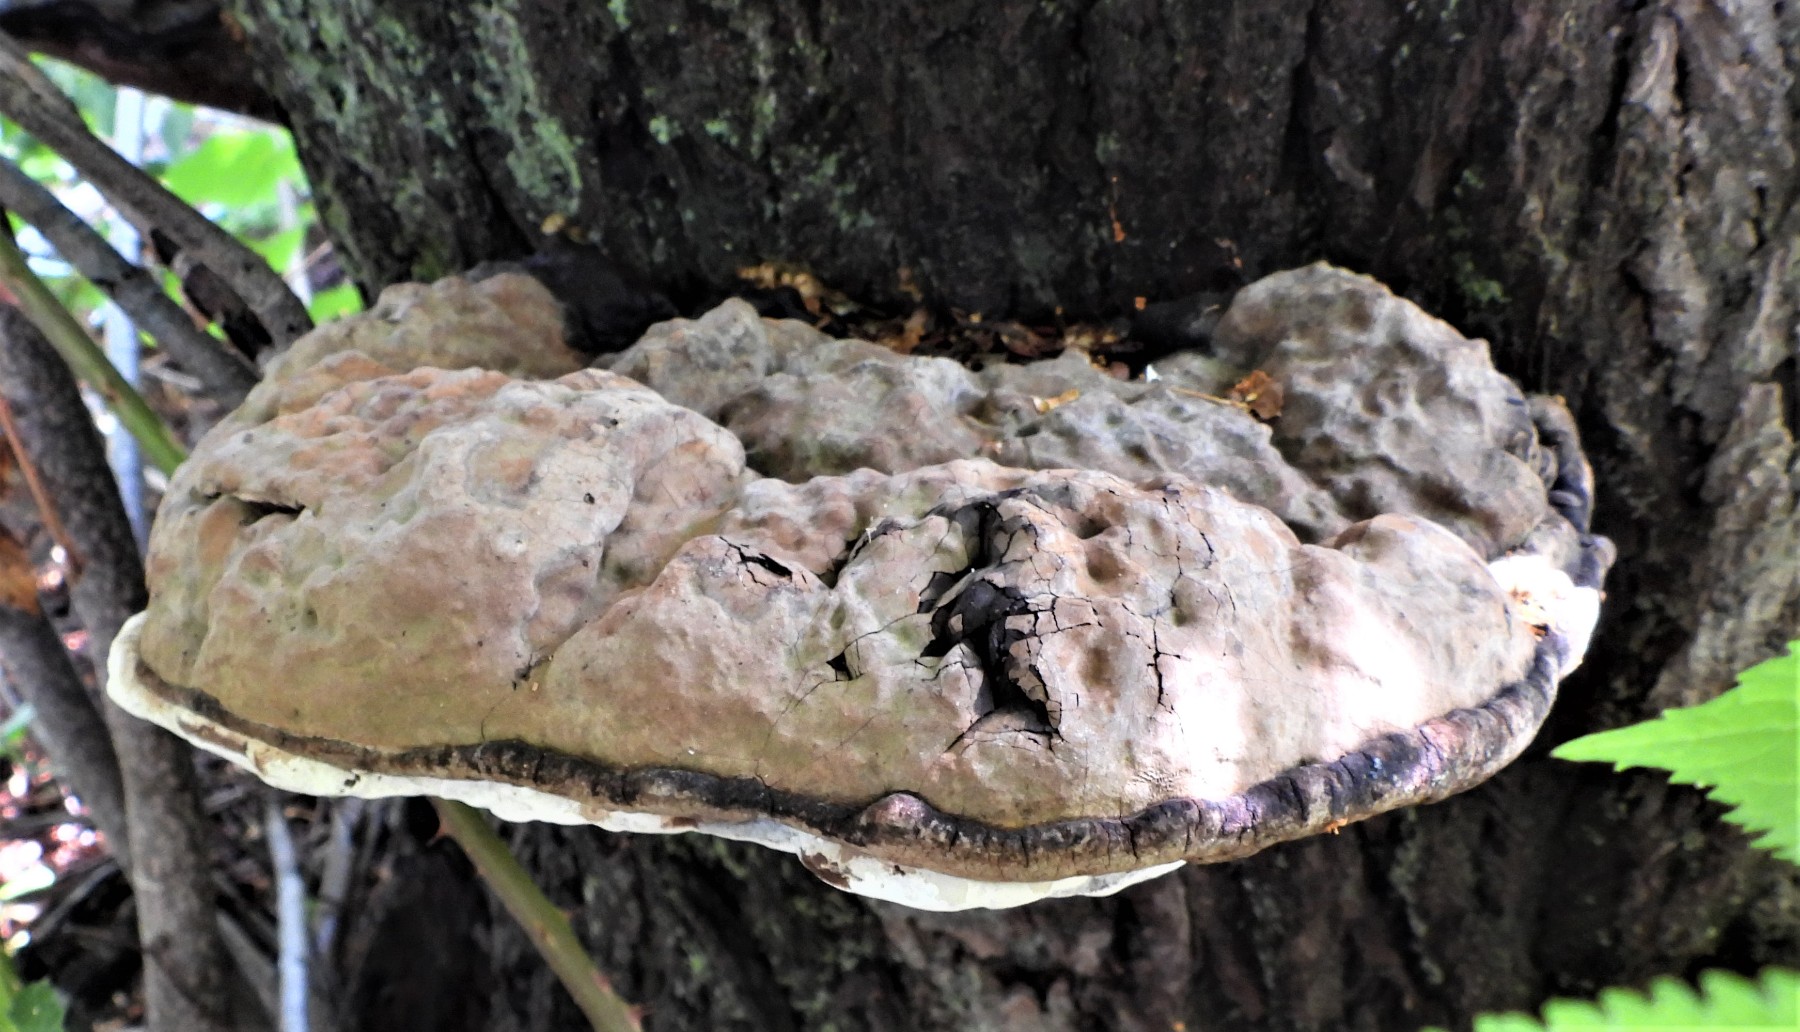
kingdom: Fungi
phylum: Basidiomycota
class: Agaricomycetes
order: Polyporales
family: Polyporaceae
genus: Ganoderma
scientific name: Ganoderma adspersum
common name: grov lakporesvamp
